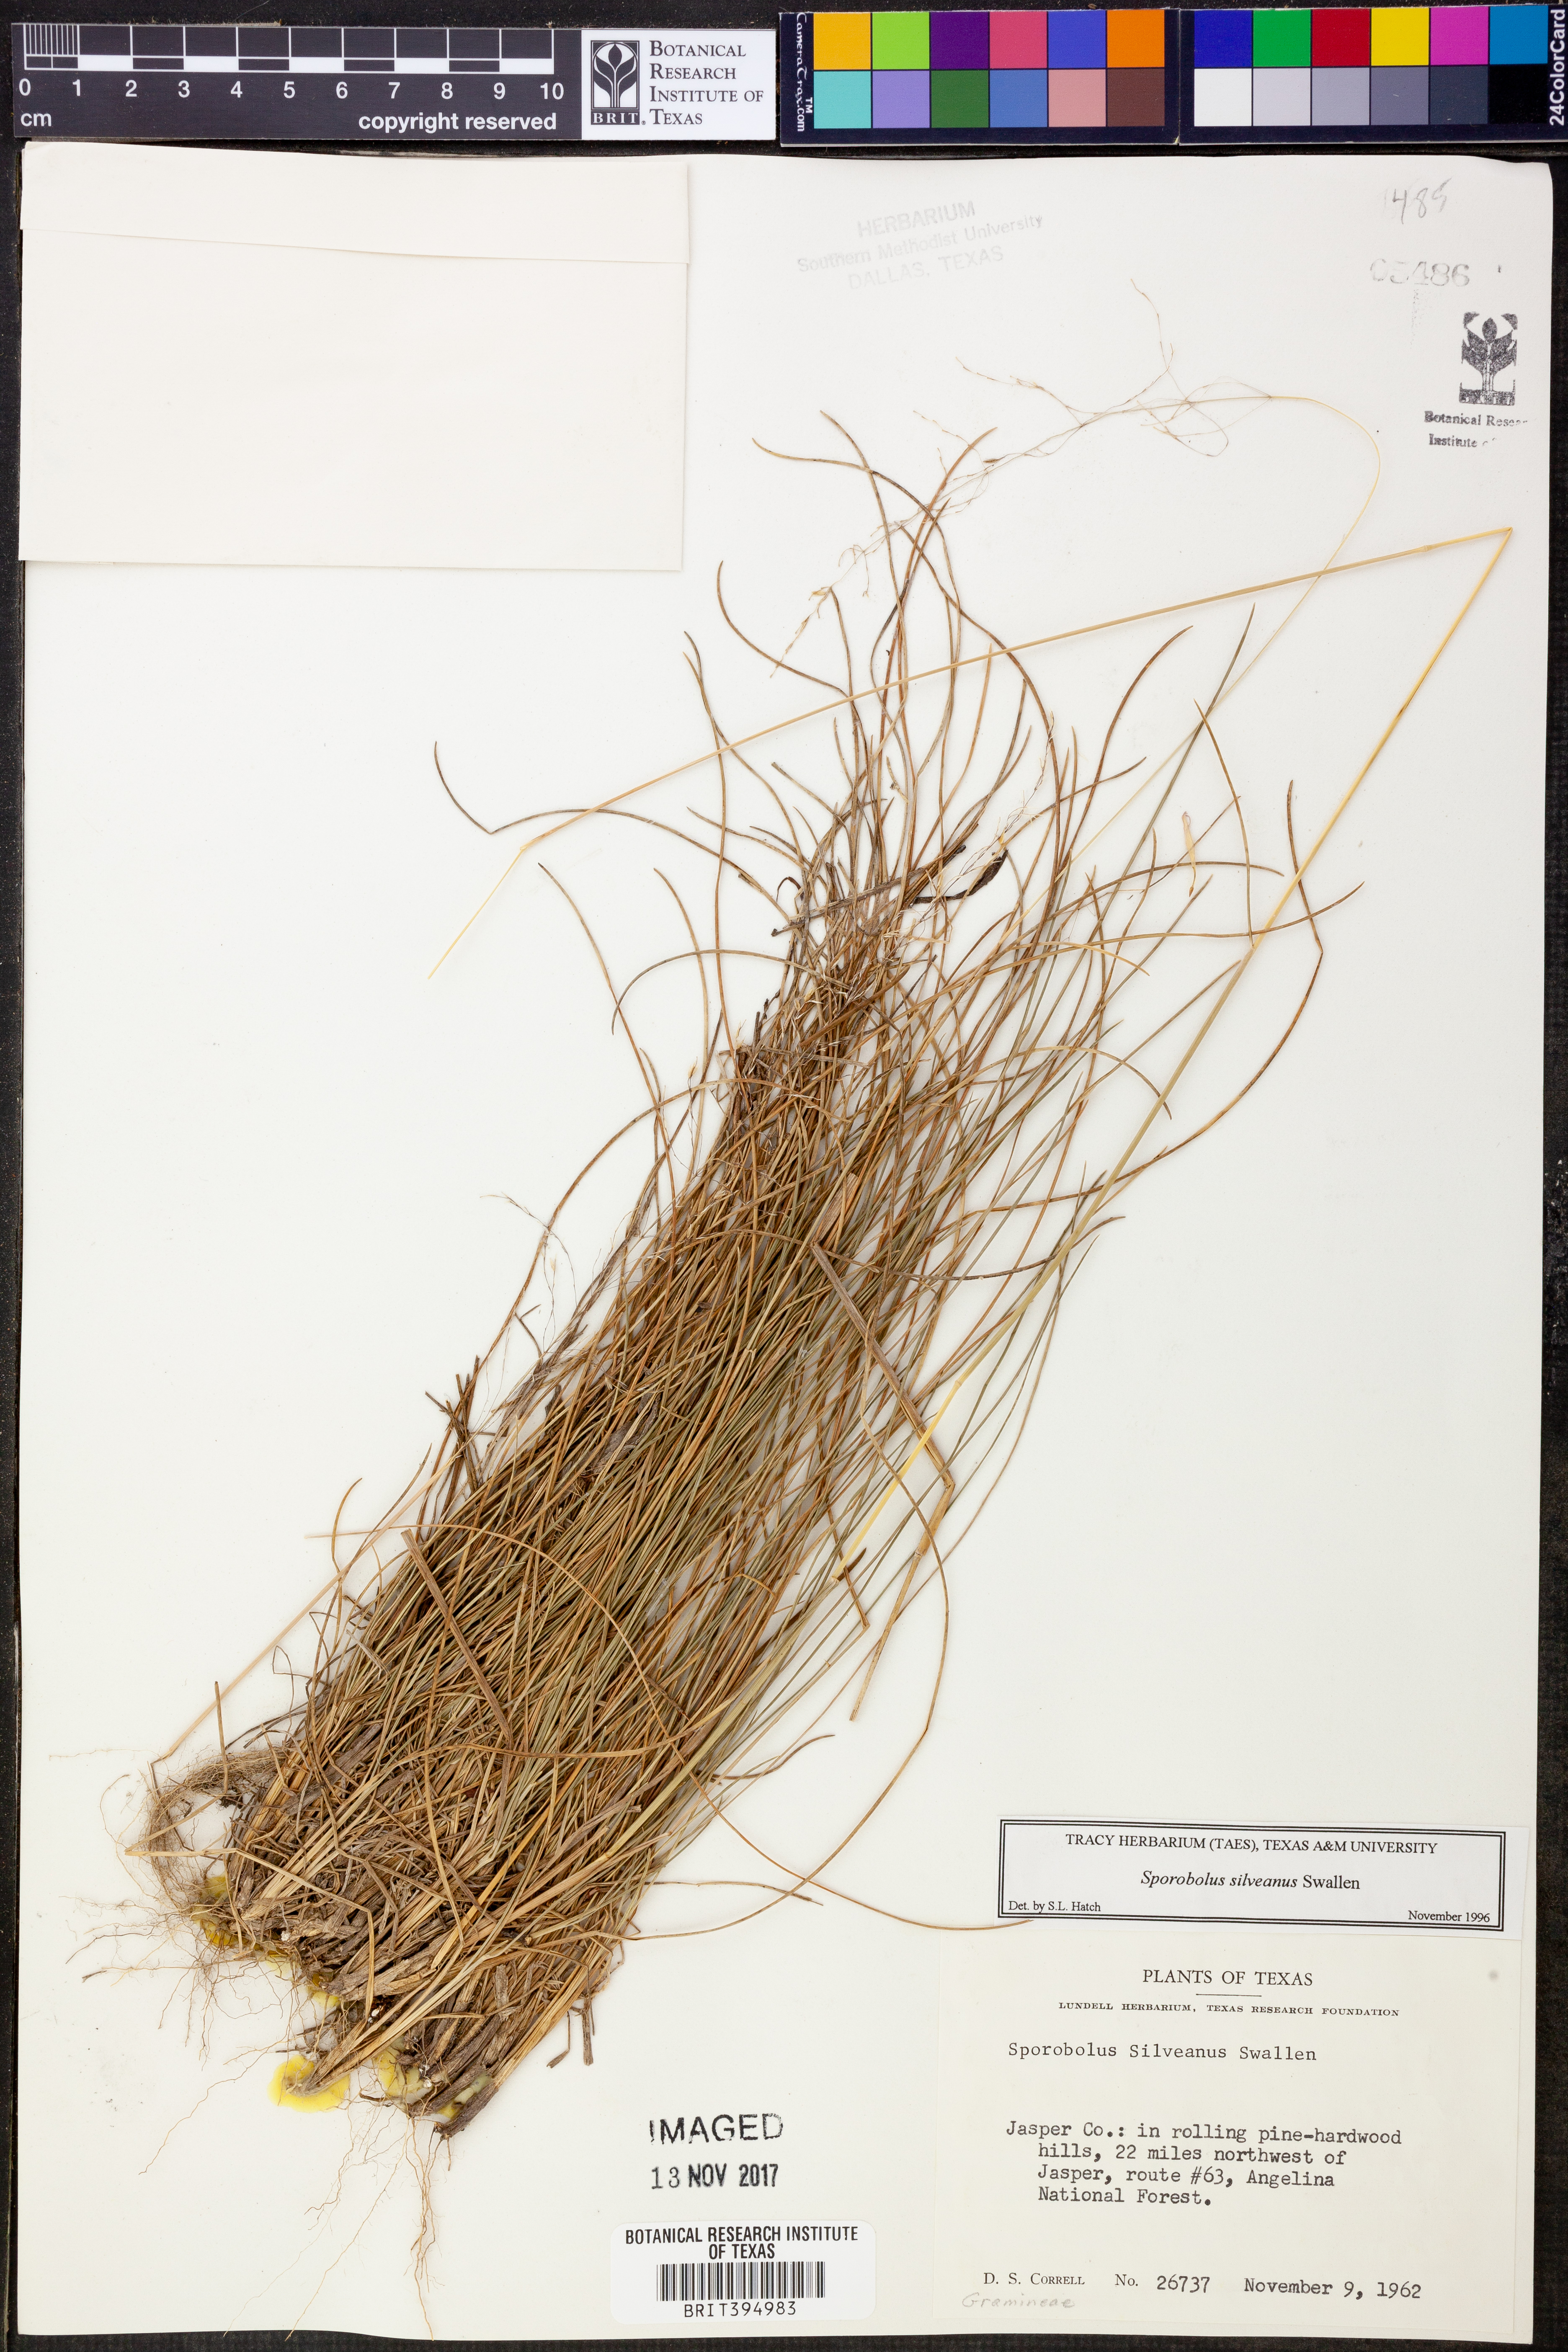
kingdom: Plantae
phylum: Tracheophyta
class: Liliopsida
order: Poales
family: Poaceae
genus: Sporobolus
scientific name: Sporobolus silveanus
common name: Silveus's dropseed
